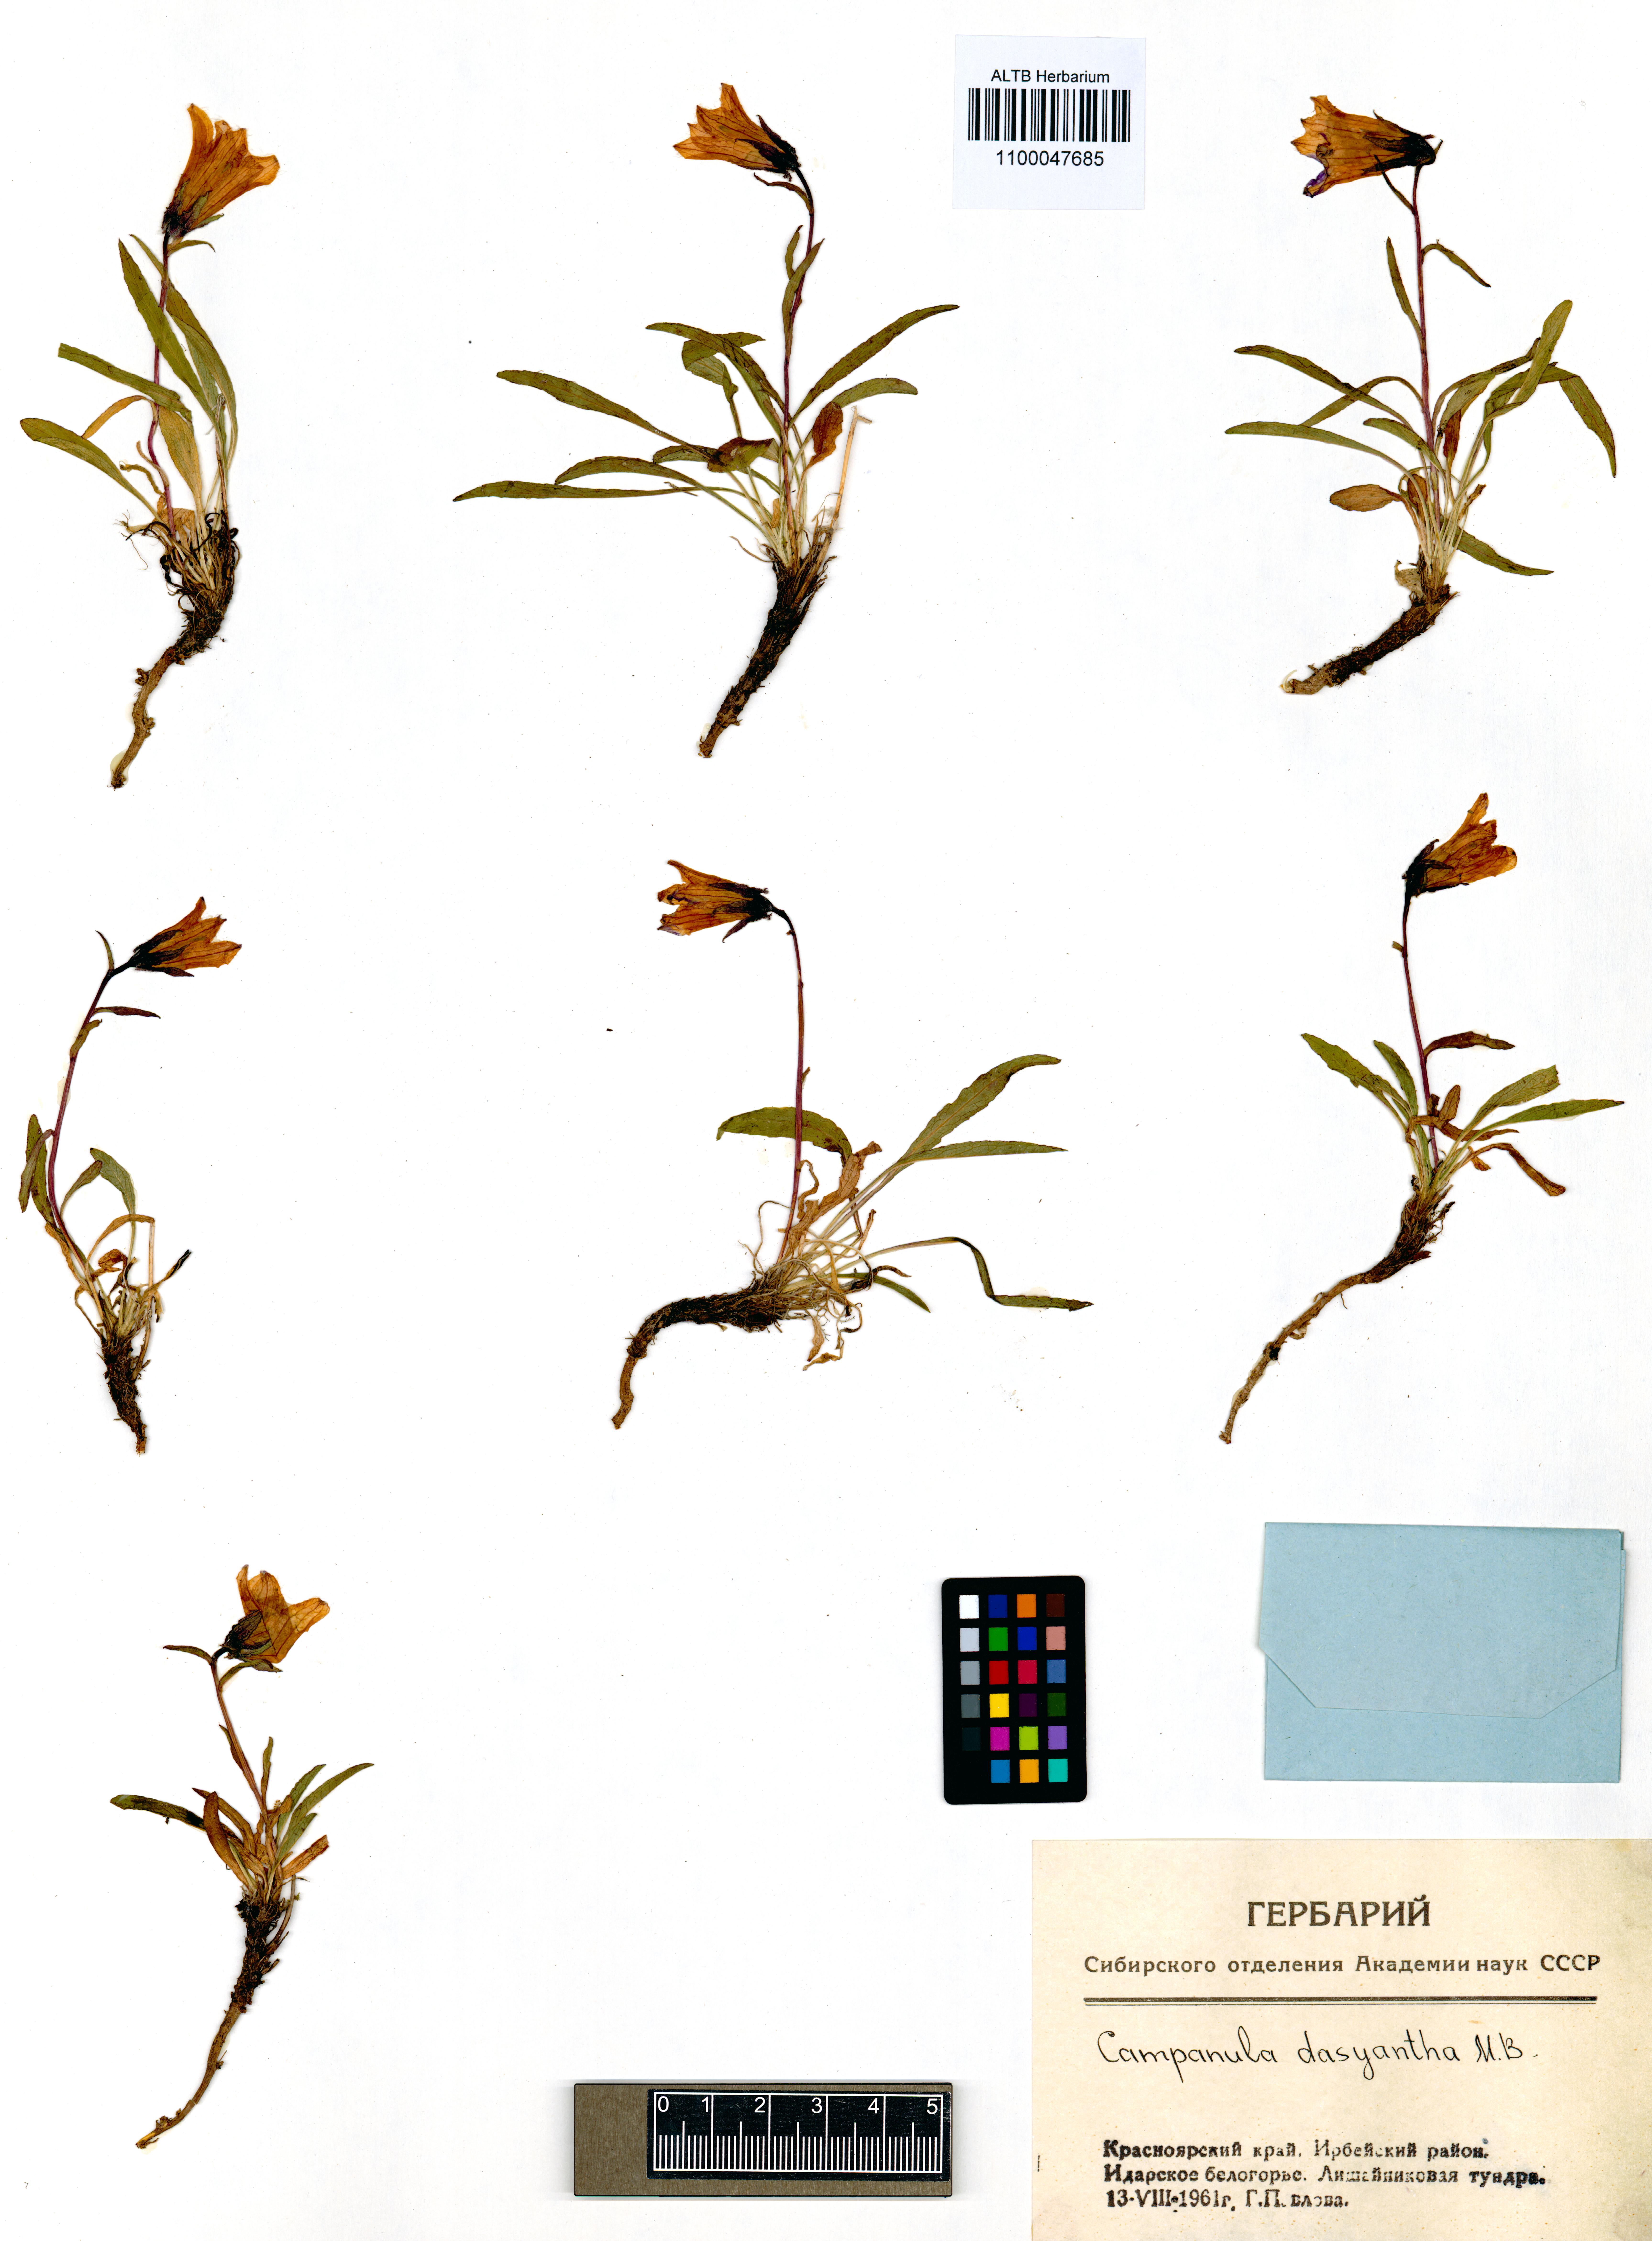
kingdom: Plantae
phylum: Tracheophyta
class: Magnoliopsida
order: Asterales
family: Campanulaceae
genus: Campanula
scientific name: Campanula dasyantha
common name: Hairyflower bellflower
